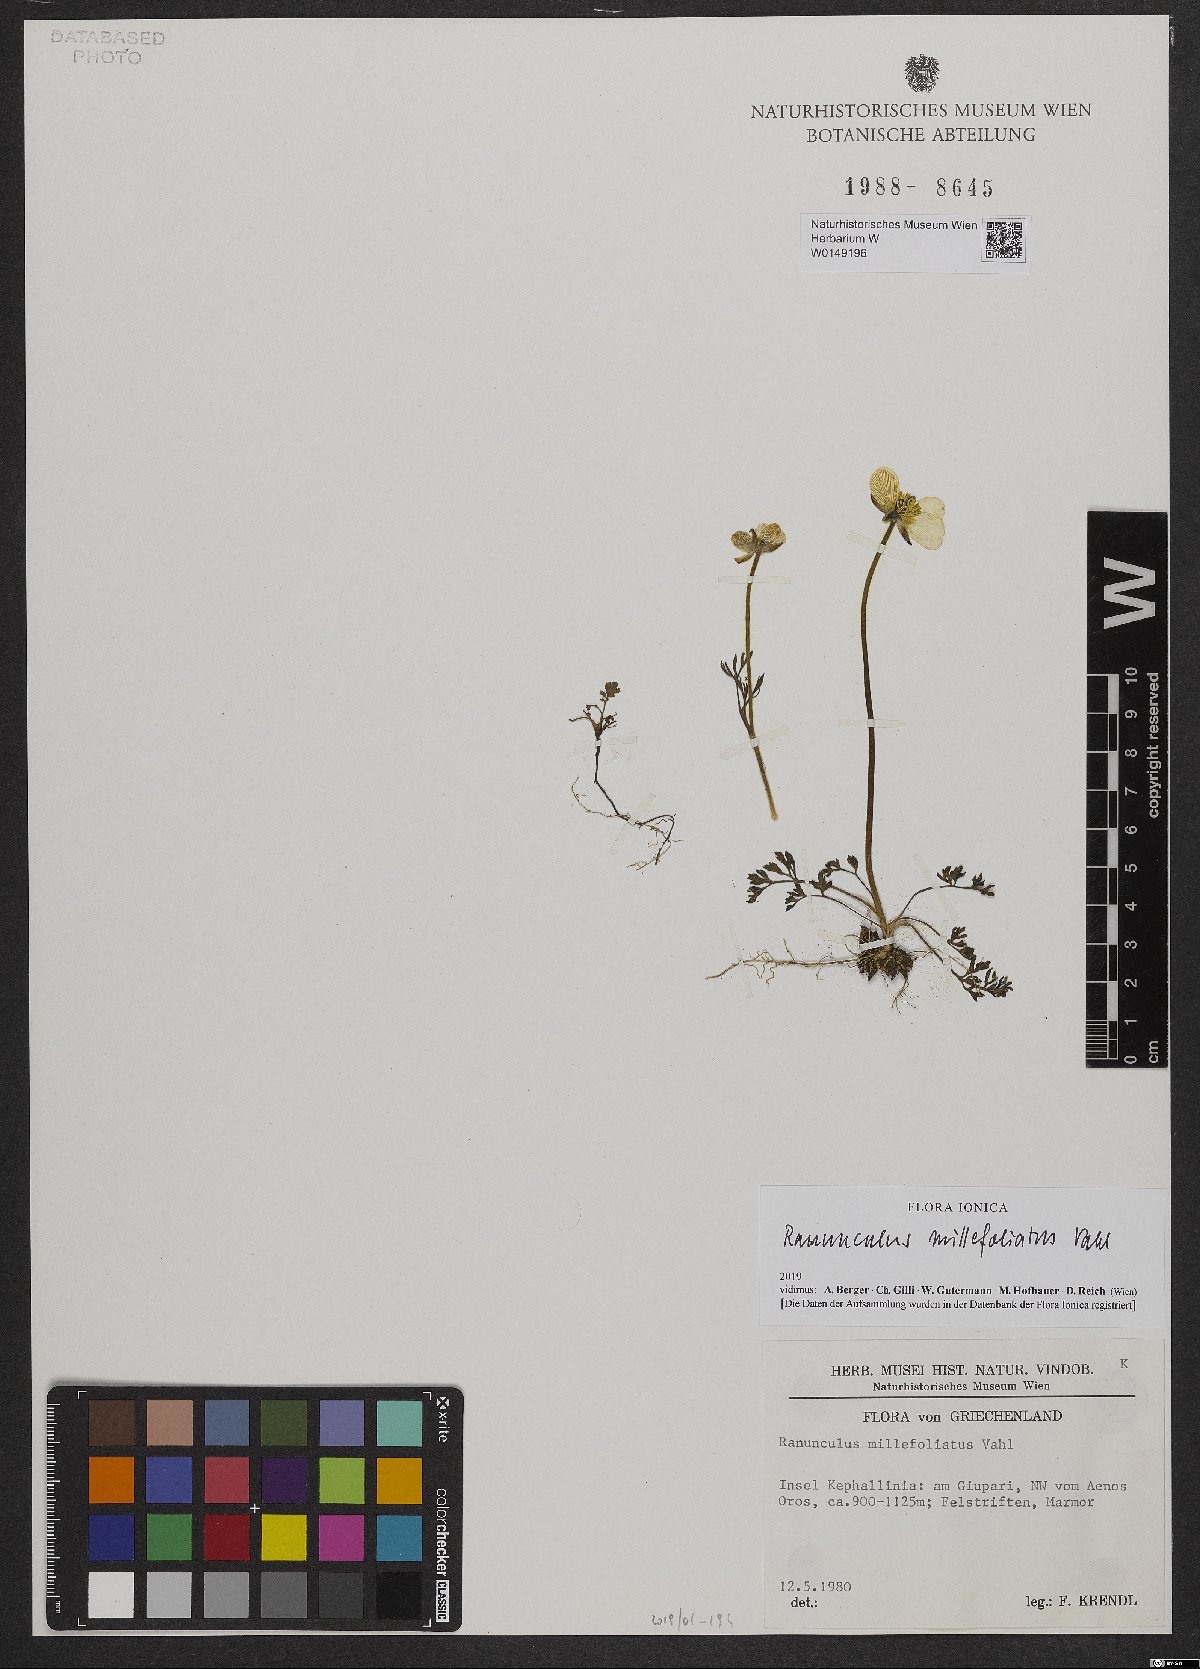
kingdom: Plantae
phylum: Tracheophyta
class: Magnoliopsida
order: Ranunculales
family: Ranunculaceae
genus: Ranunculus
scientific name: Ranunculus millefoliatus
